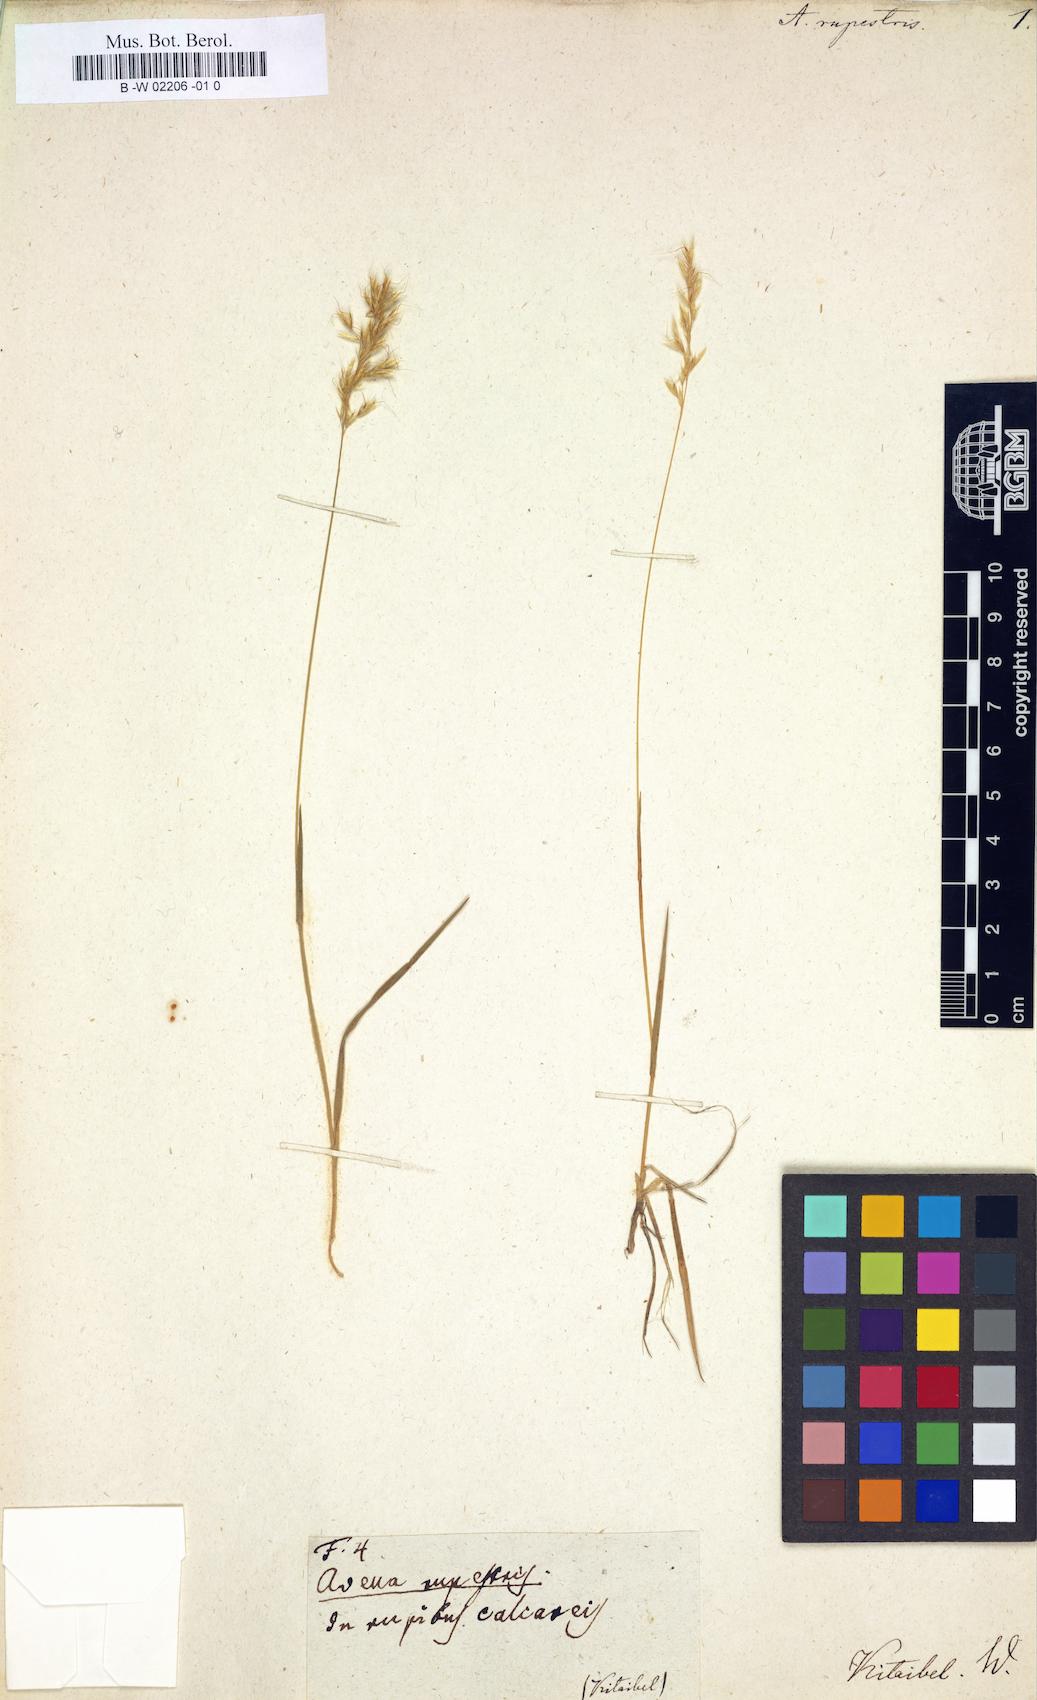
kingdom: Plantae
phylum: Tracheophyta
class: Liliopsida
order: Poales
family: Poaceae
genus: Agrostis
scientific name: Agrostis rupestris
